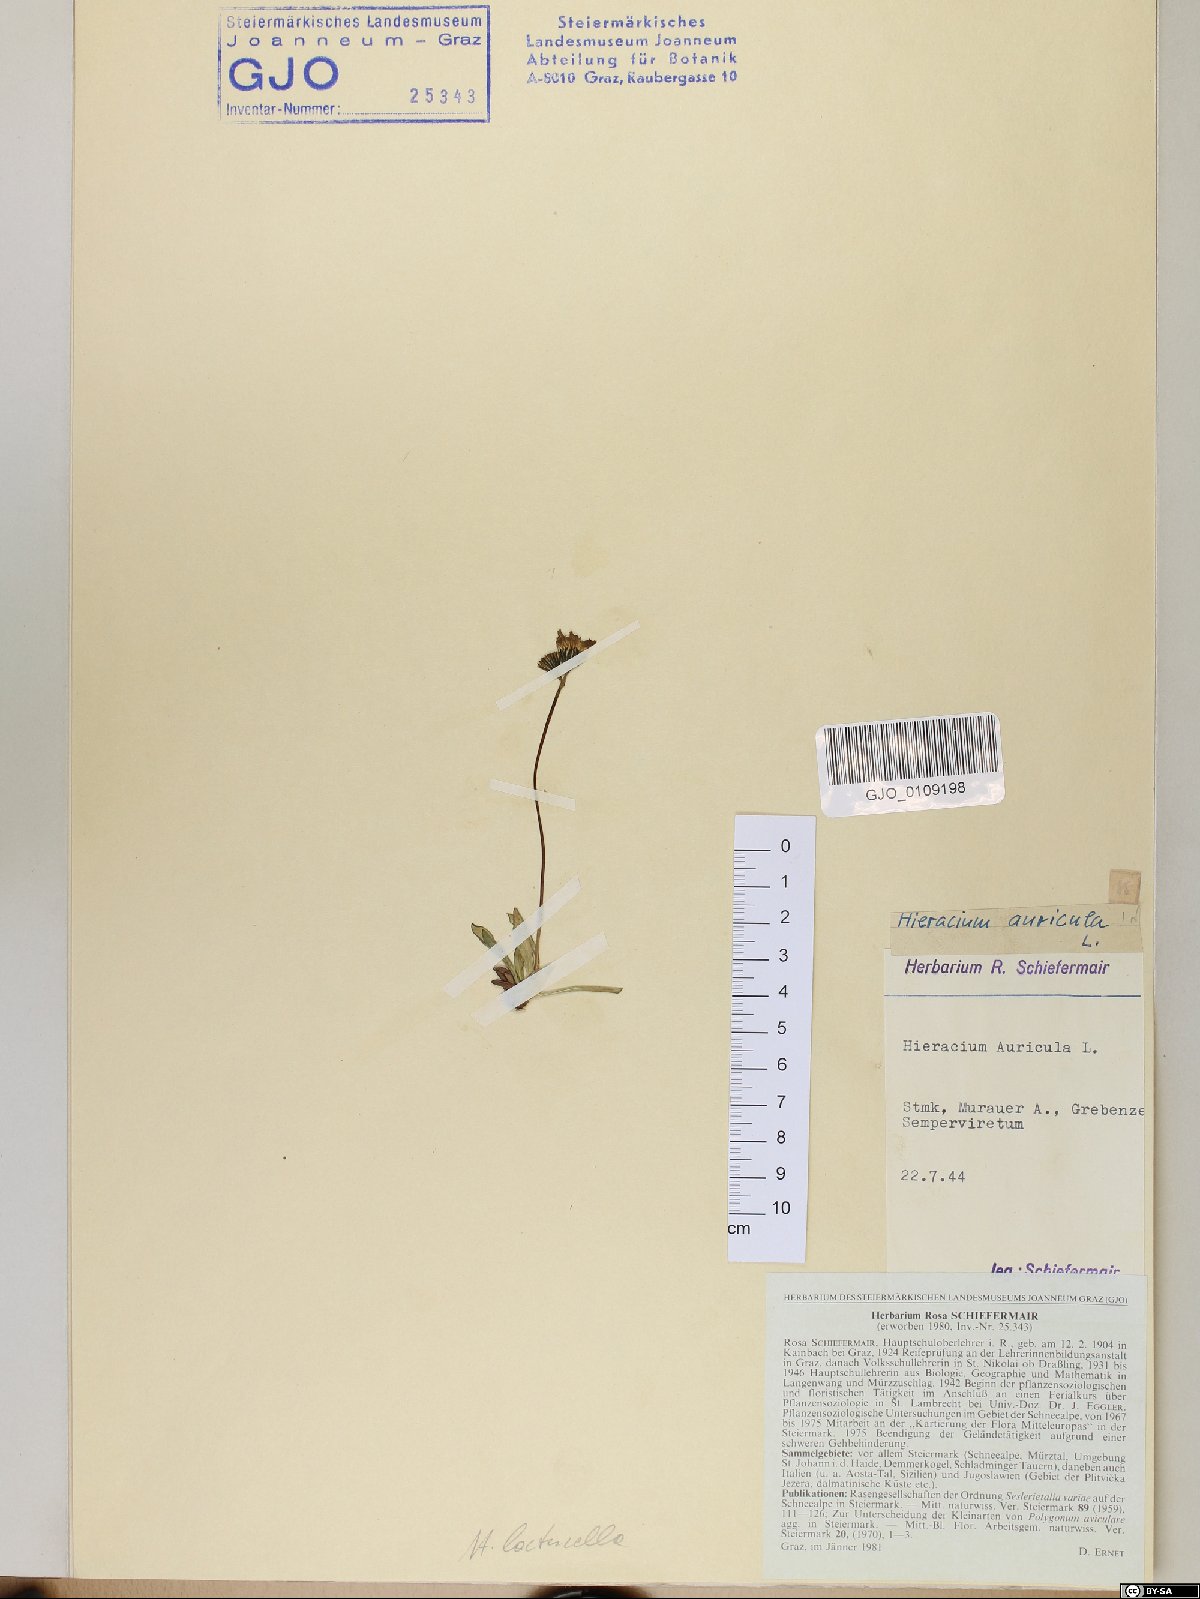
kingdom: Plantae
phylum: Tracheophyta
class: Magnoliopsida
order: Asterales
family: Asteraceae
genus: Pilosella
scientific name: Pilosella floribunda
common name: Glaucous hawkweed
